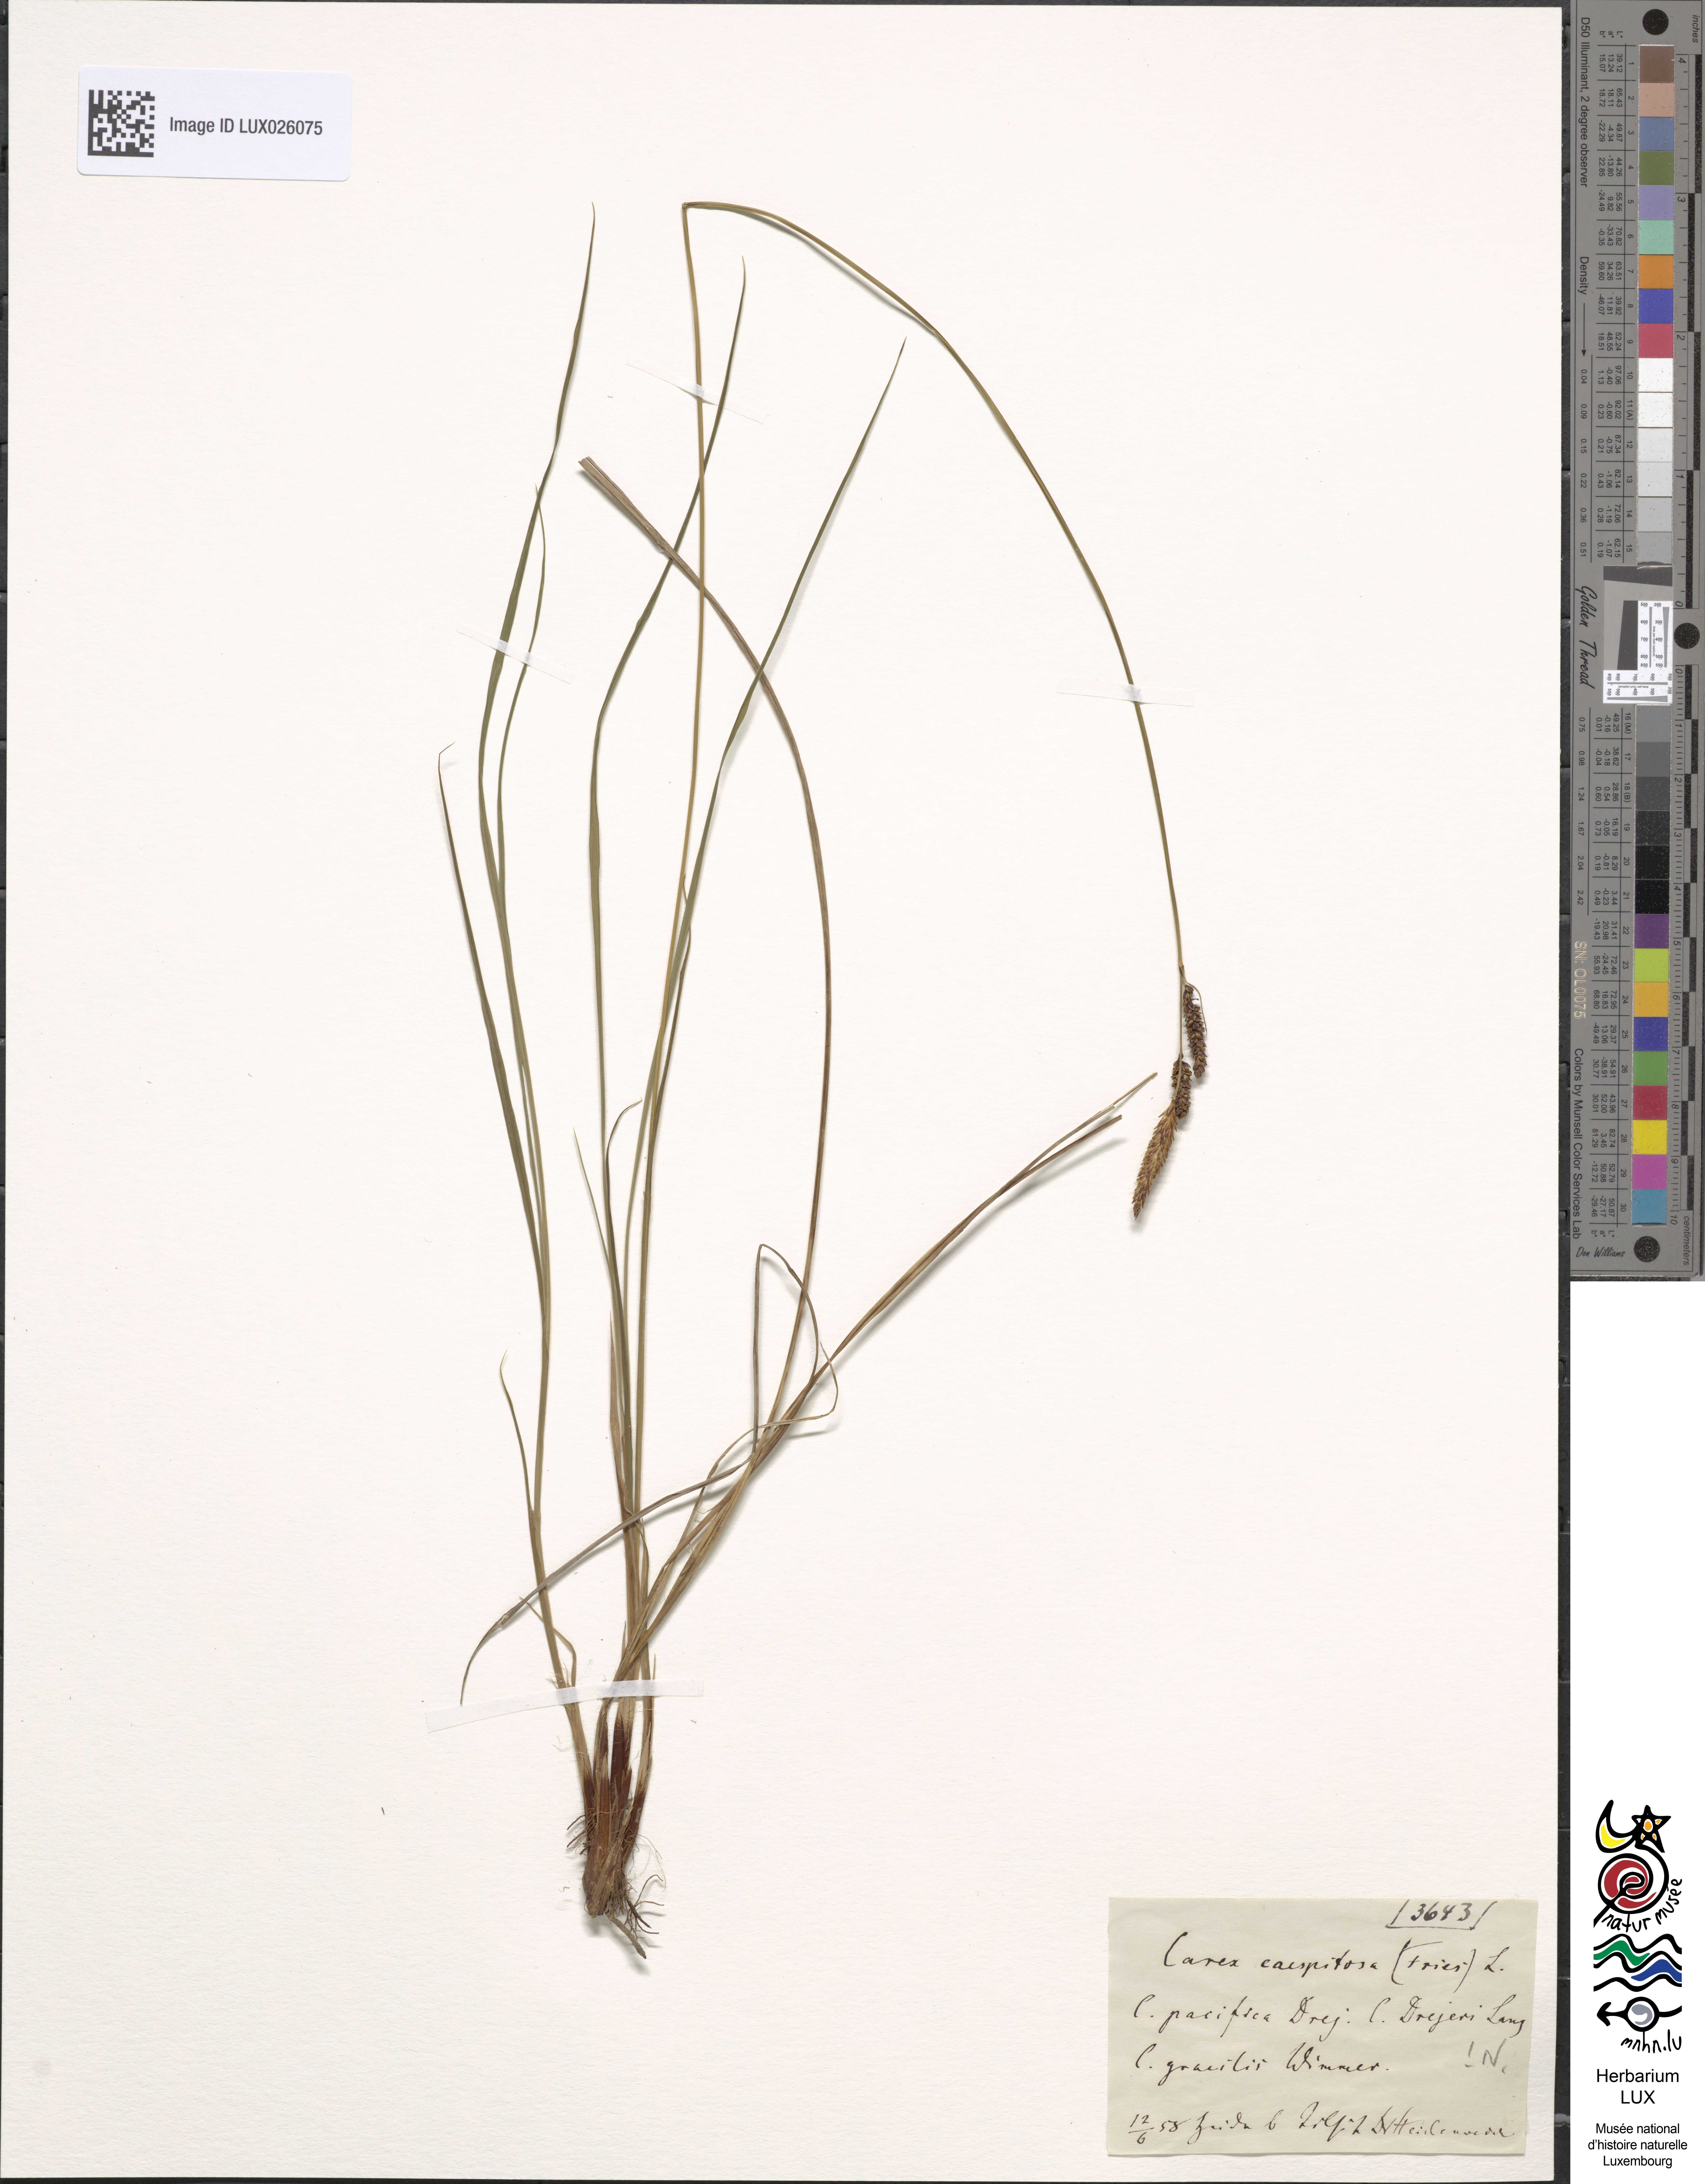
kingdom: Plantae
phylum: Tracheophyta
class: Liliopsida
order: Poales
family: Cyperaceae
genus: Carex
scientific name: Carex cespitosa
